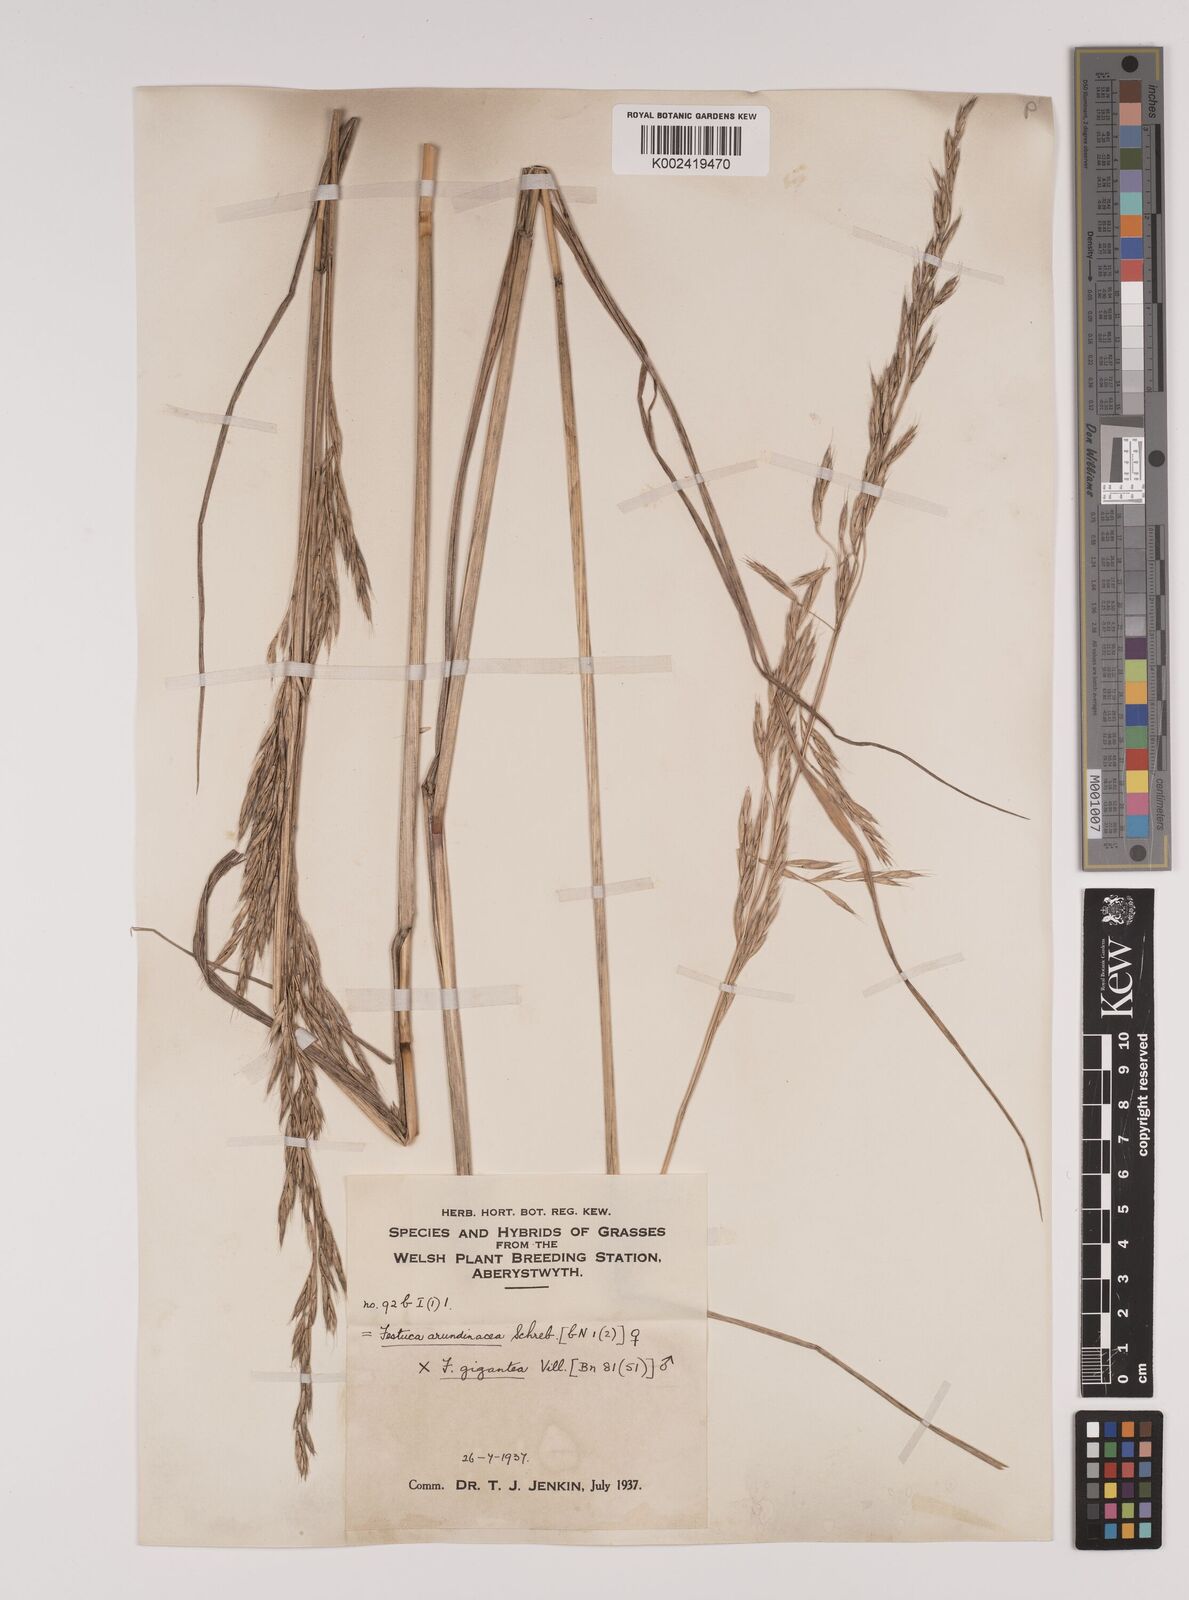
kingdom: Plantae
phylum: Tracheophyta
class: Liliopsida
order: Poales
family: Poaceae
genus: Lolium
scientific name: Lolium giganteum
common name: Giant fescue
